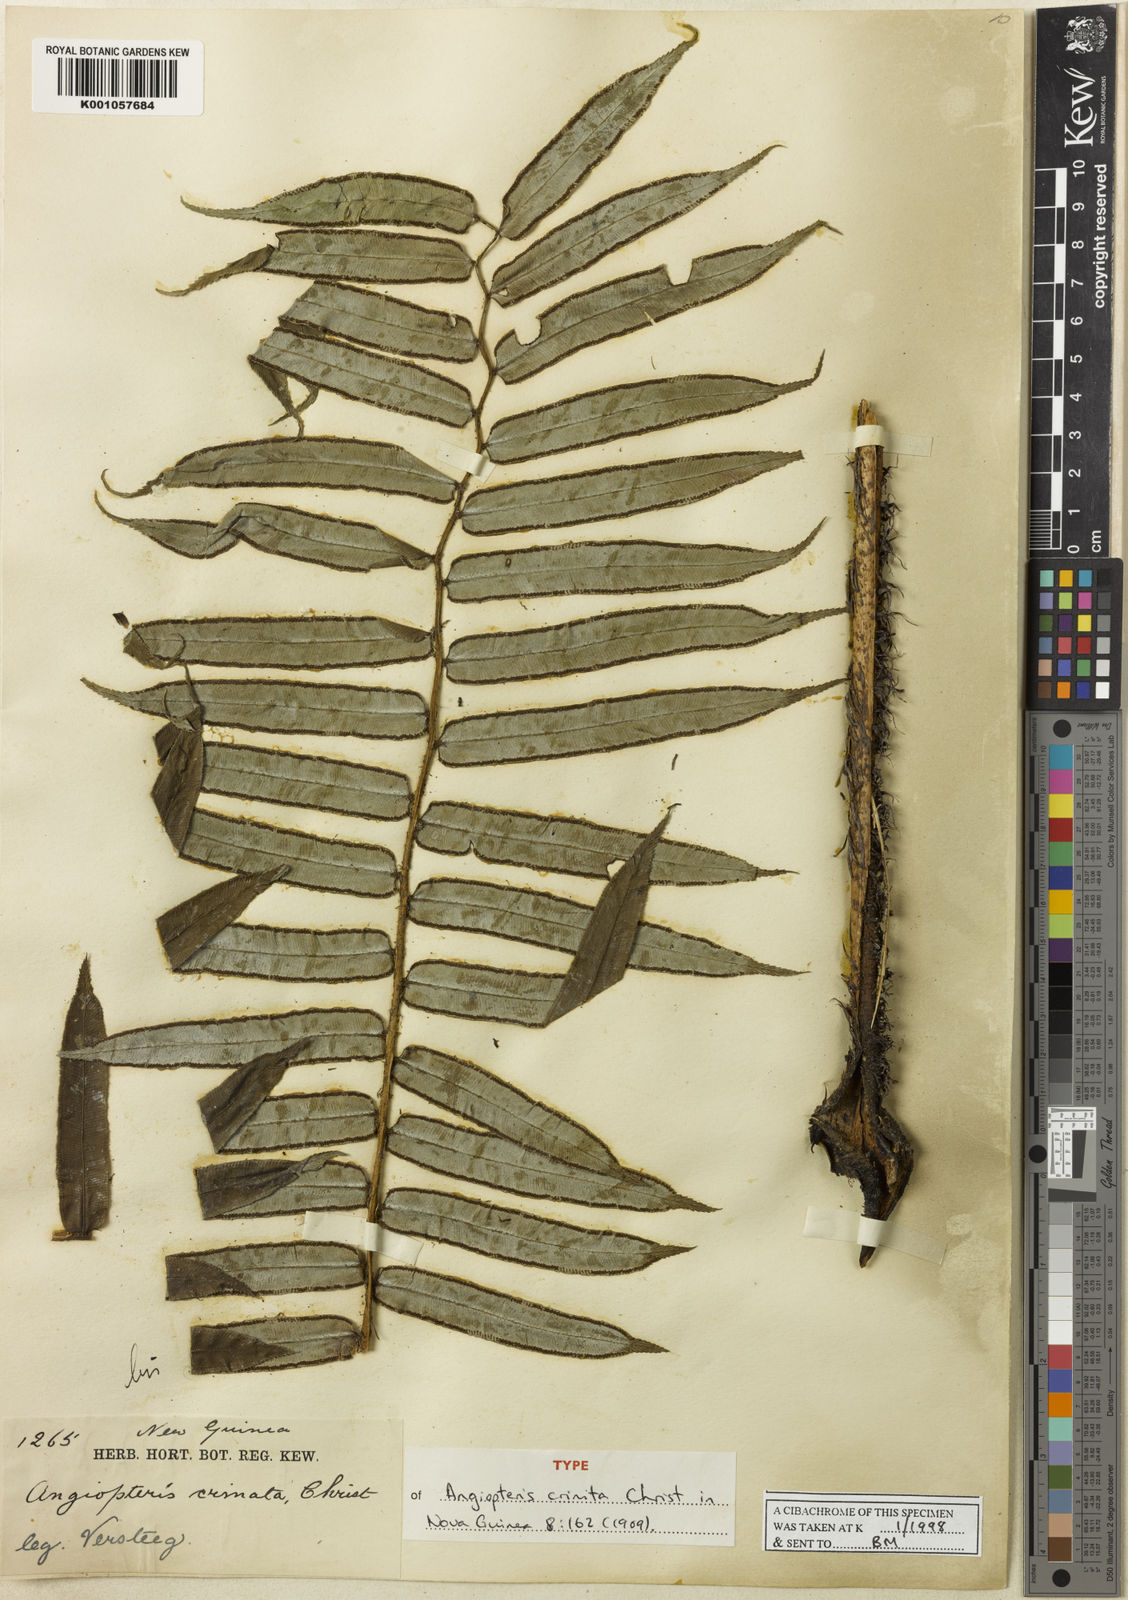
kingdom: Plantae
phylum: Tracheophyta
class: Polypodiopsida
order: Marattiales
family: Marattiaceae
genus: Angiopteris
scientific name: Angiopteris pruinosa
